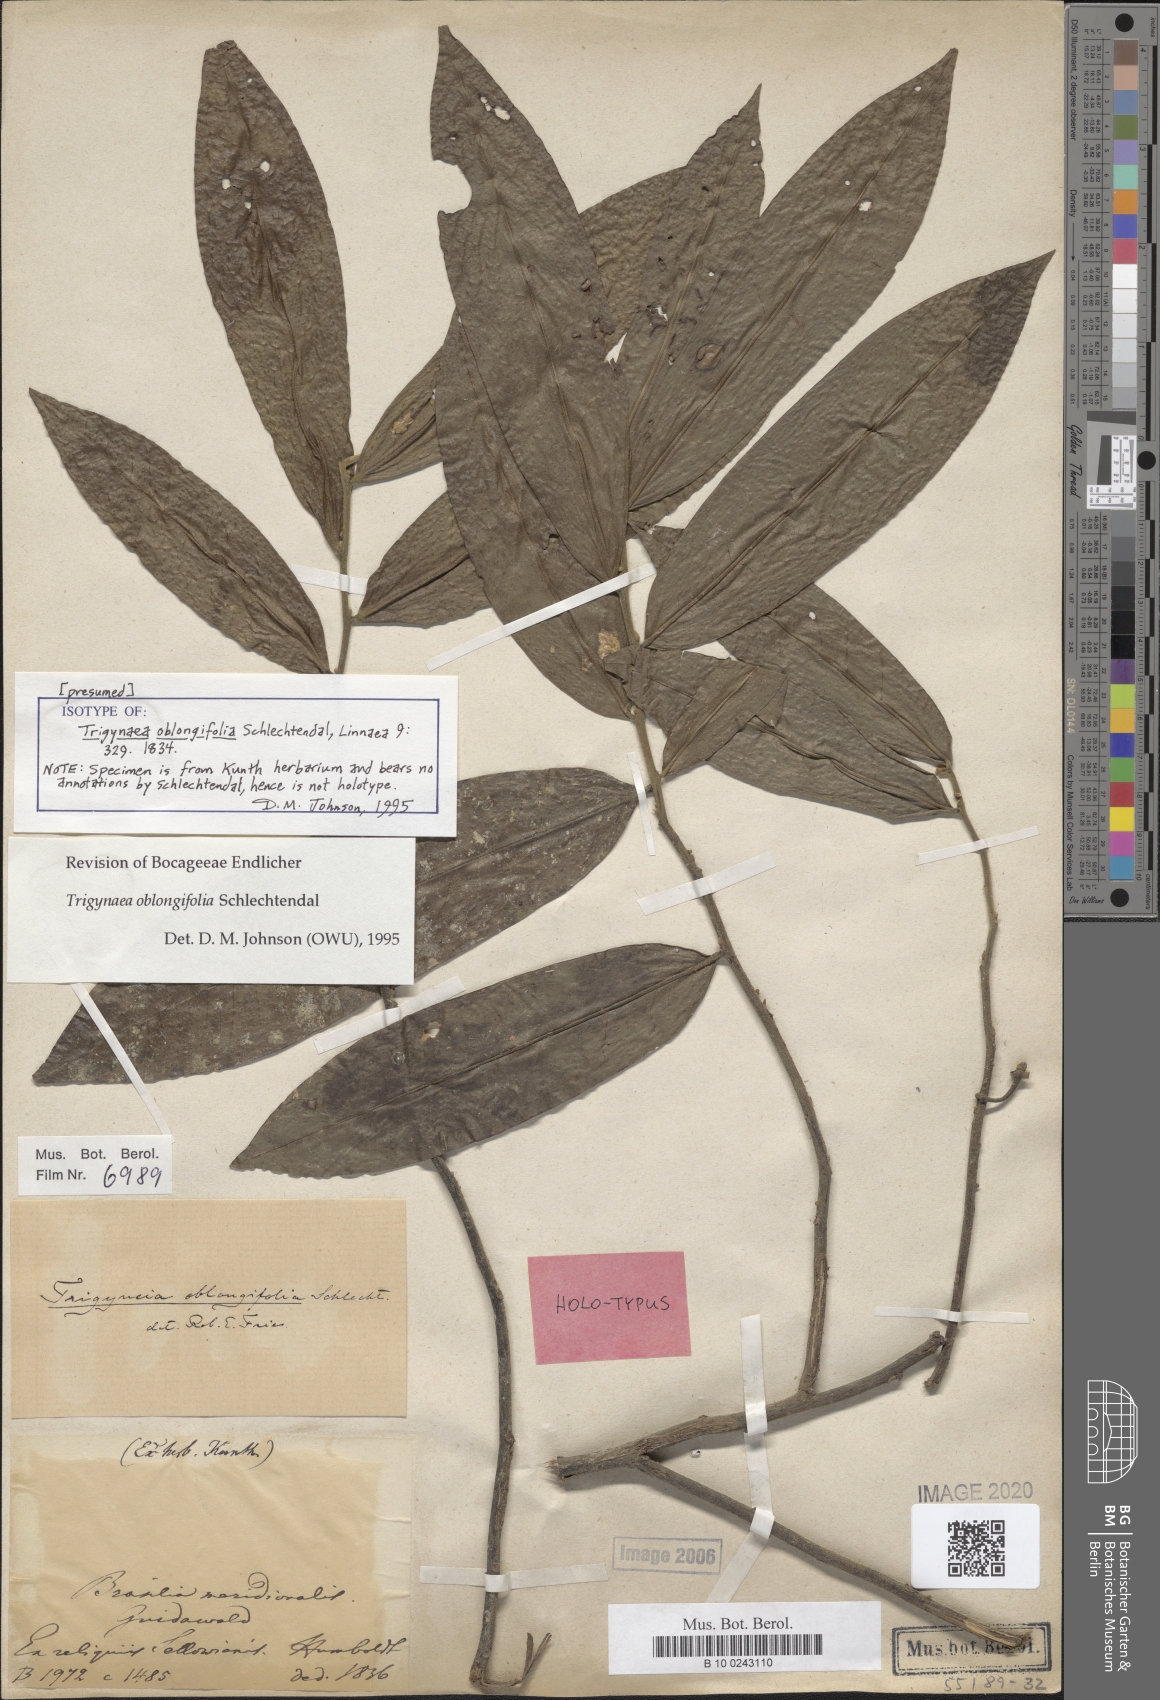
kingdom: Plantae
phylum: Tracheophyta
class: Magnoliopsida
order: Magnoliales
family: Annonaceae
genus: Trigynaea
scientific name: Trigynaea oblongifolia
